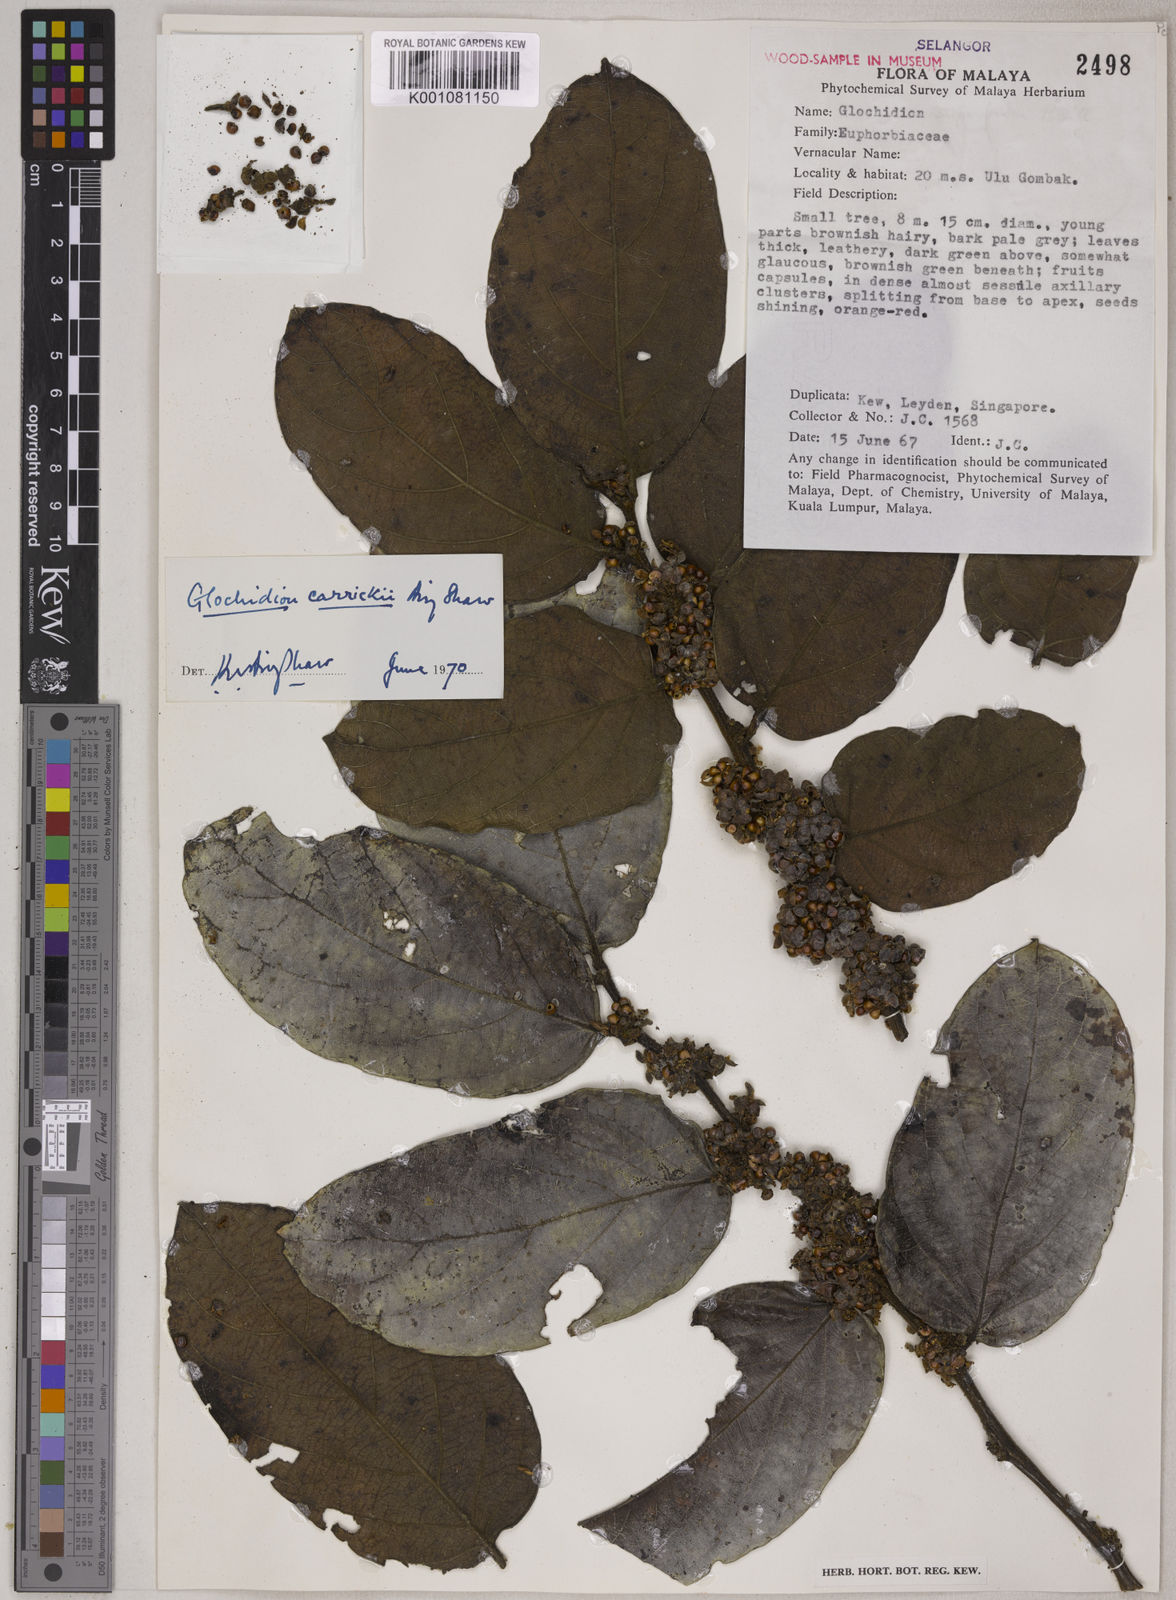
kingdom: Plantae
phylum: Tracheophyta
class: Magnoliopsida
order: Malpighiales
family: Phyllanthaceae
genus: Glochidion
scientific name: Glochidion carrickii
